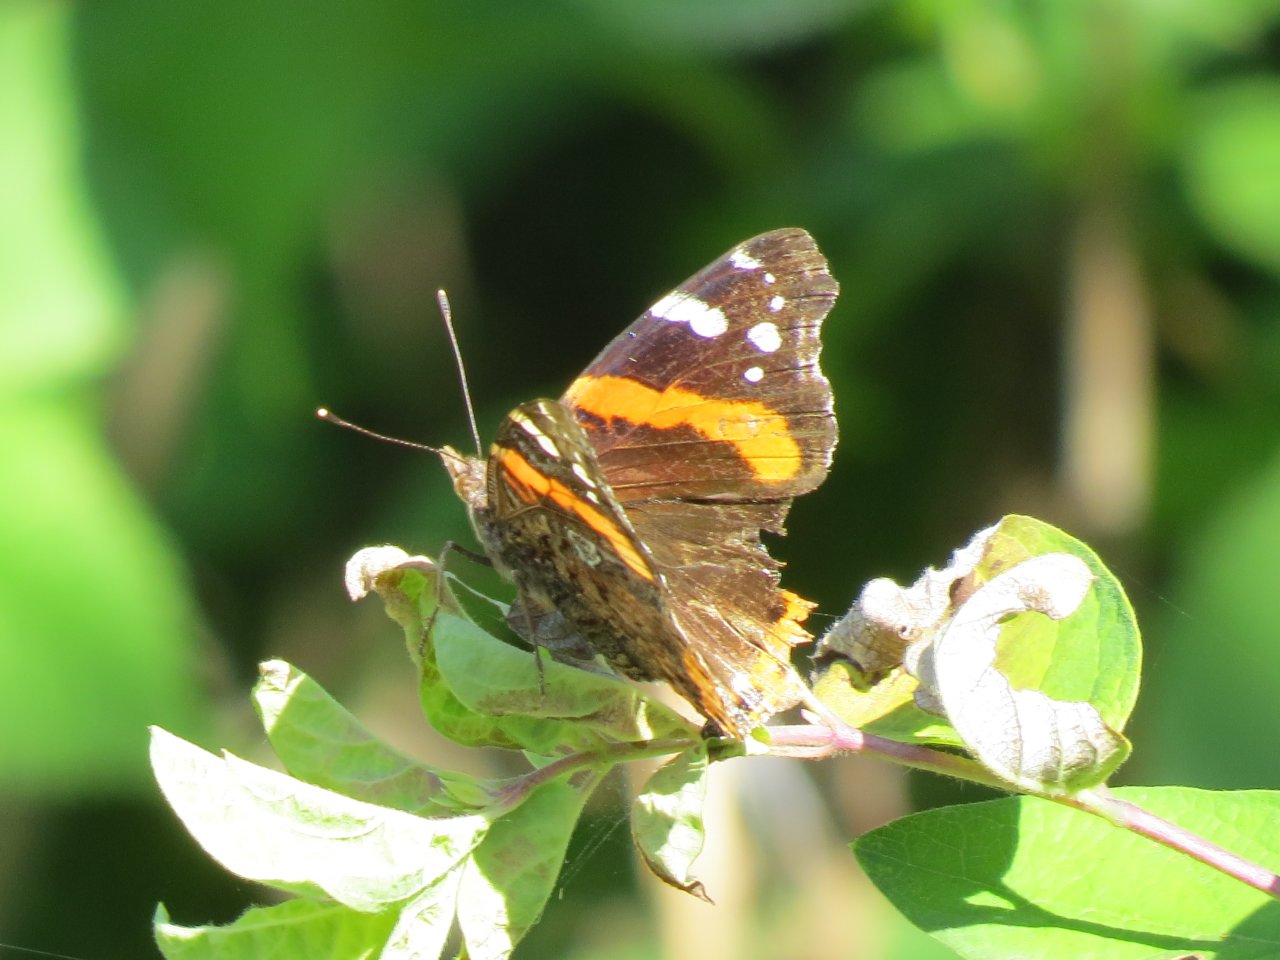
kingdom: Animalia
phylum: Arthropoda
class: Insecta
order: Lepidoptera
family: Nymphalidae
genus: Vanessa
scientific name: Vanessa atalanta
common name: Red Admiral
